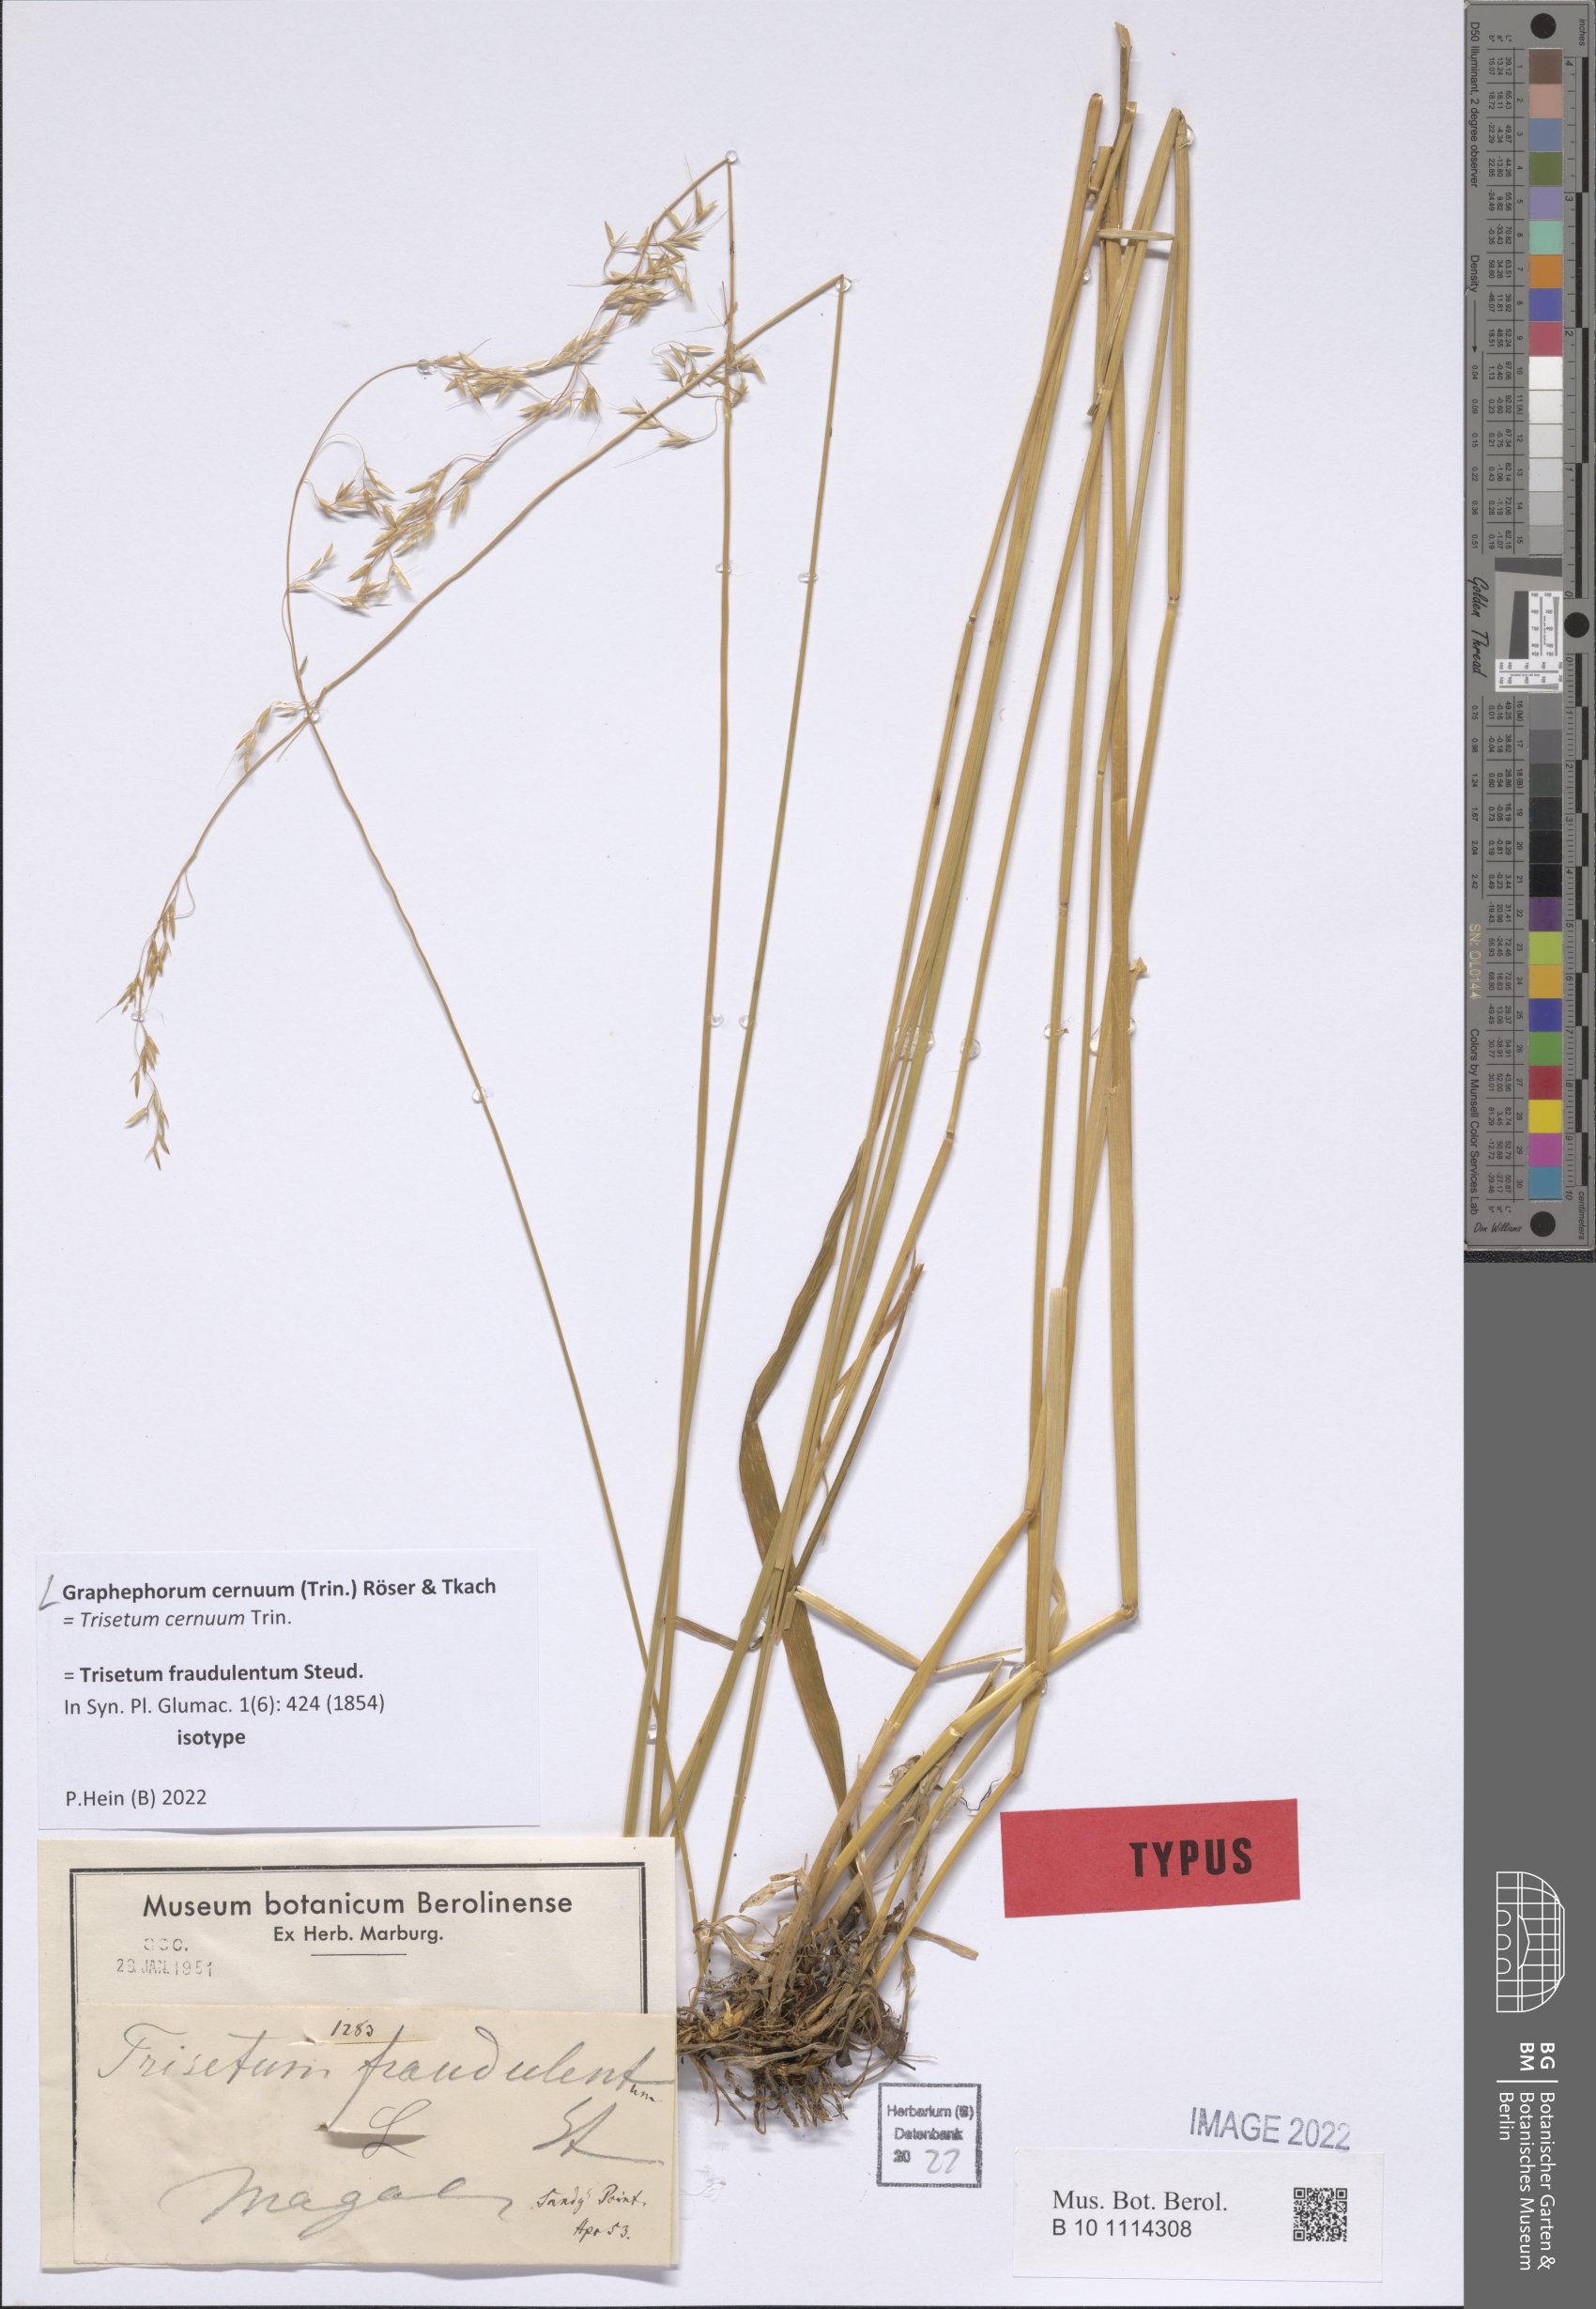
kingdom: Plantae
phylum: Tracheophyta
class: Liliopsida
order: Poales
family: Poaceae
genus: Graphephorum
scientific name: Graphephorum cernuum
